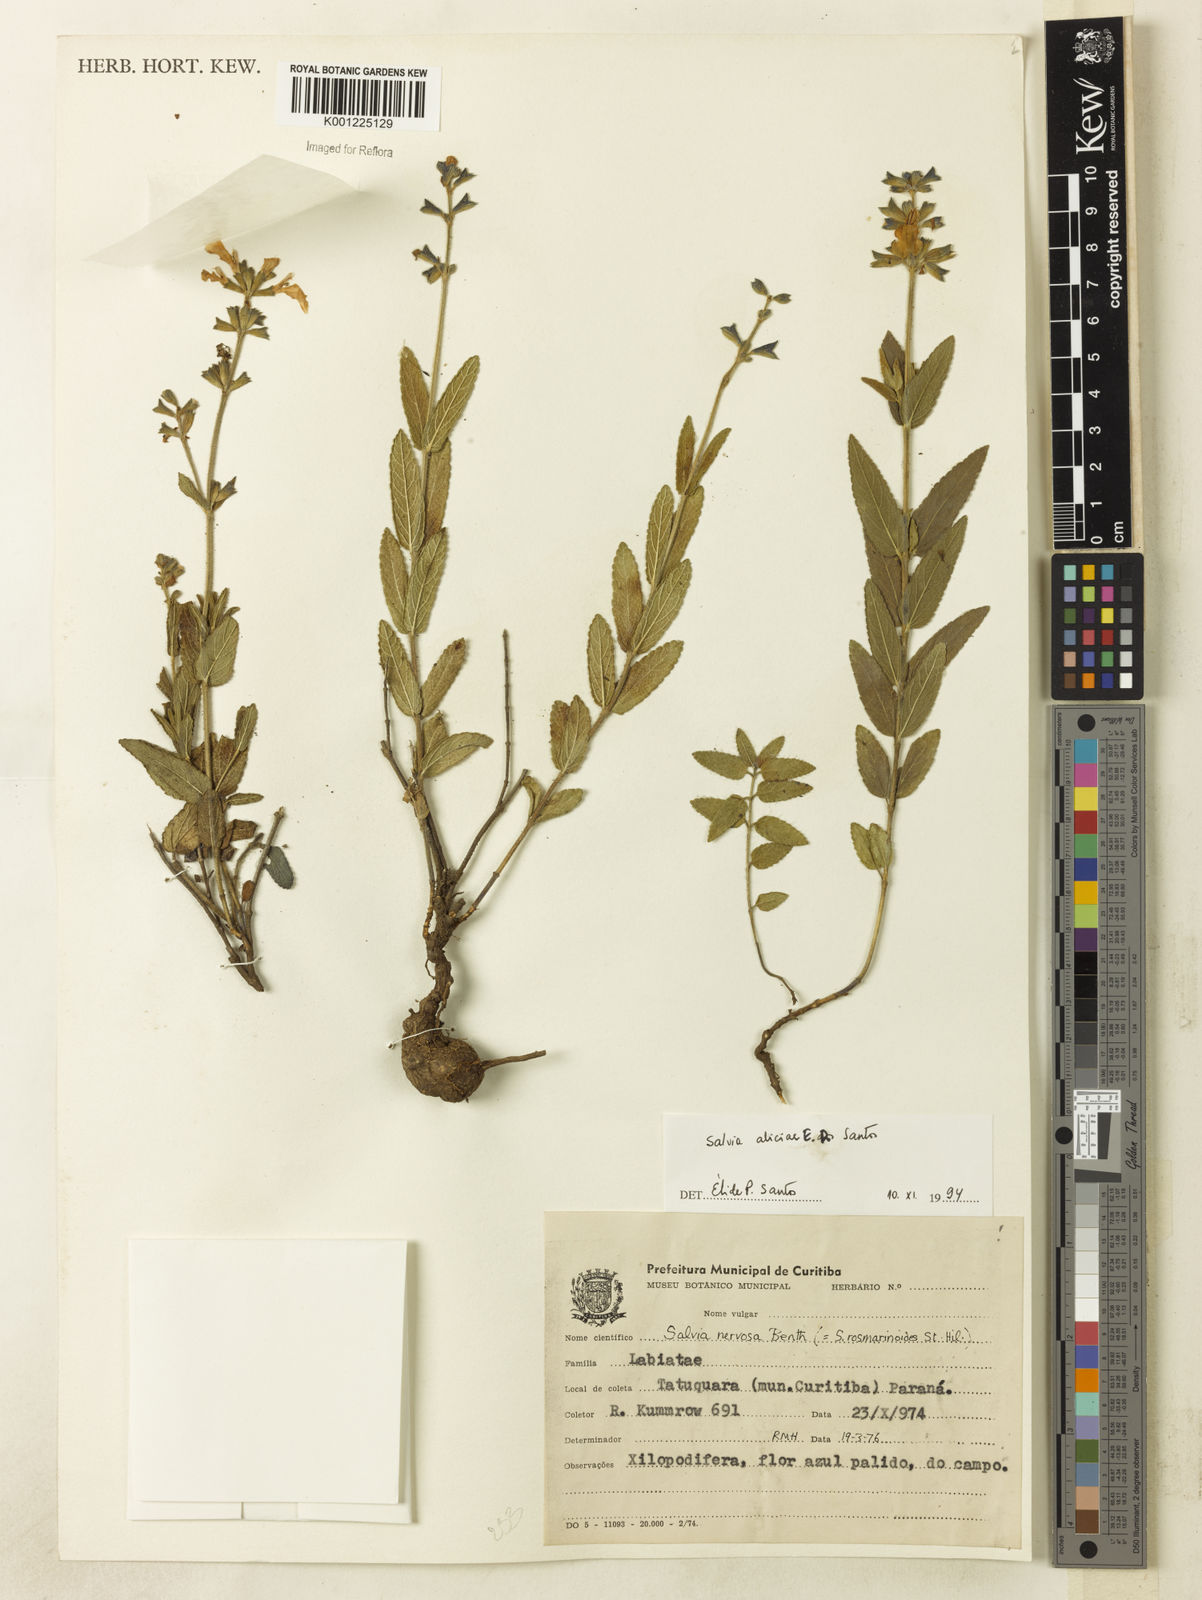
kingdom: Plantae
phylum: Tracheophyta
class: Magnoliopsida
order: Lamiales
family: Lamiaceae
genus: Salvia
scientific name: Salvia aliciae
